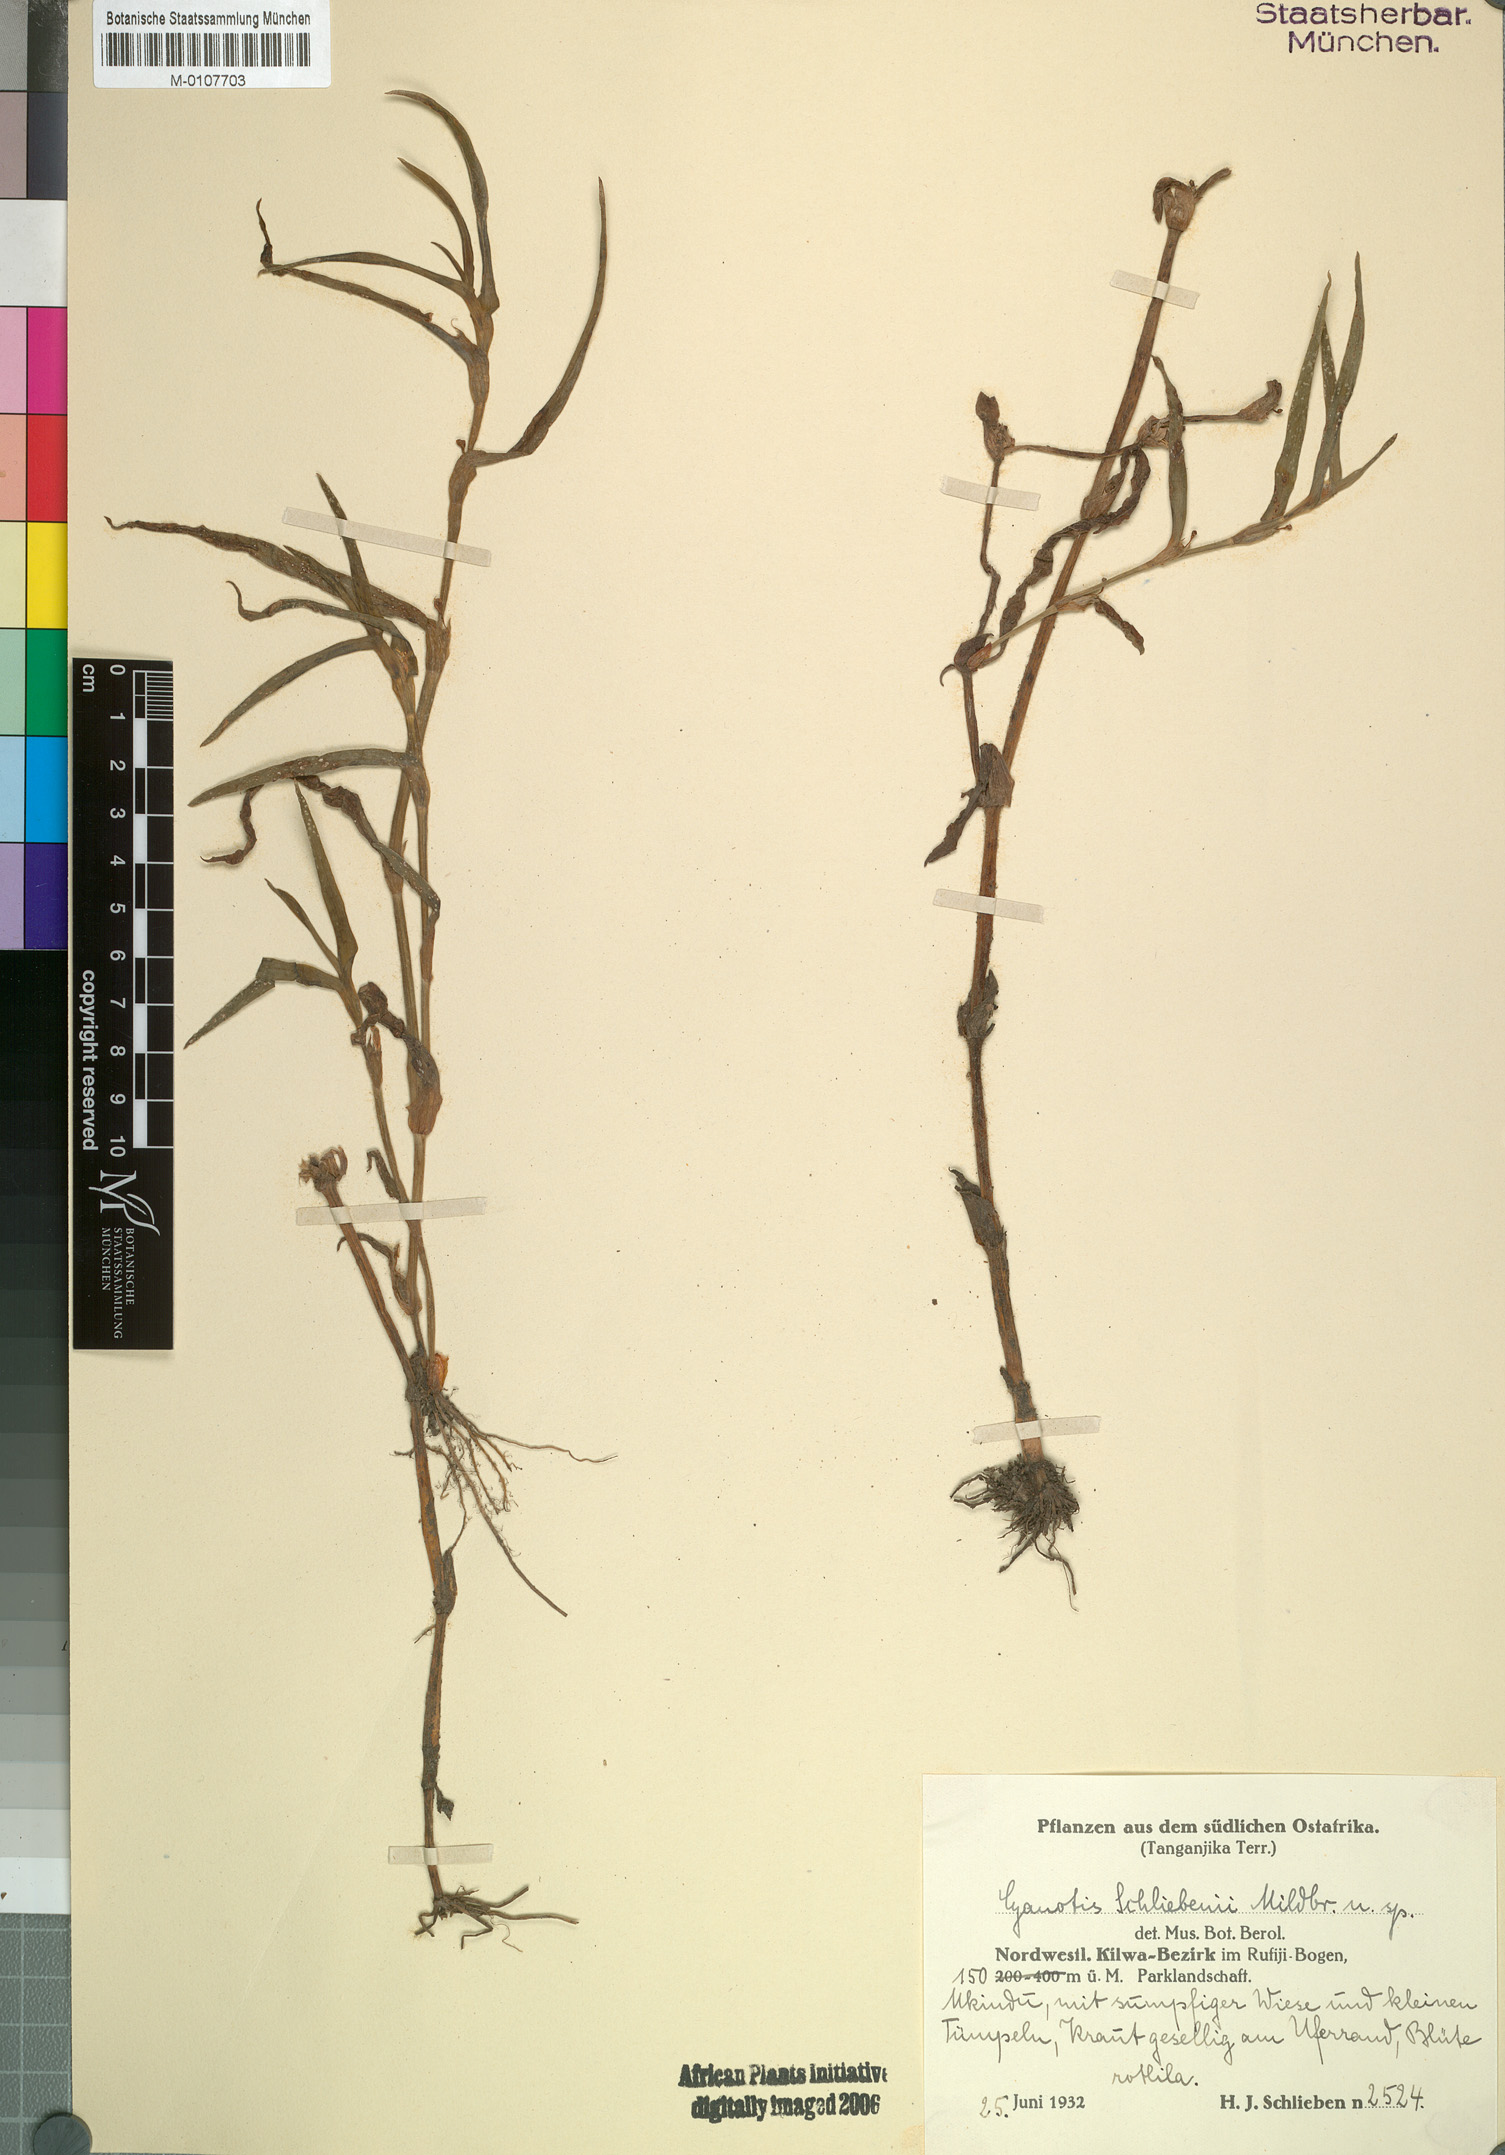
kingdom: Plantae
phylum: Tracheophyta
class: Liliopsida
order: Commelinales
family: Commelinaceae
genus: Cyanotis
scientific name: Cyanotis
